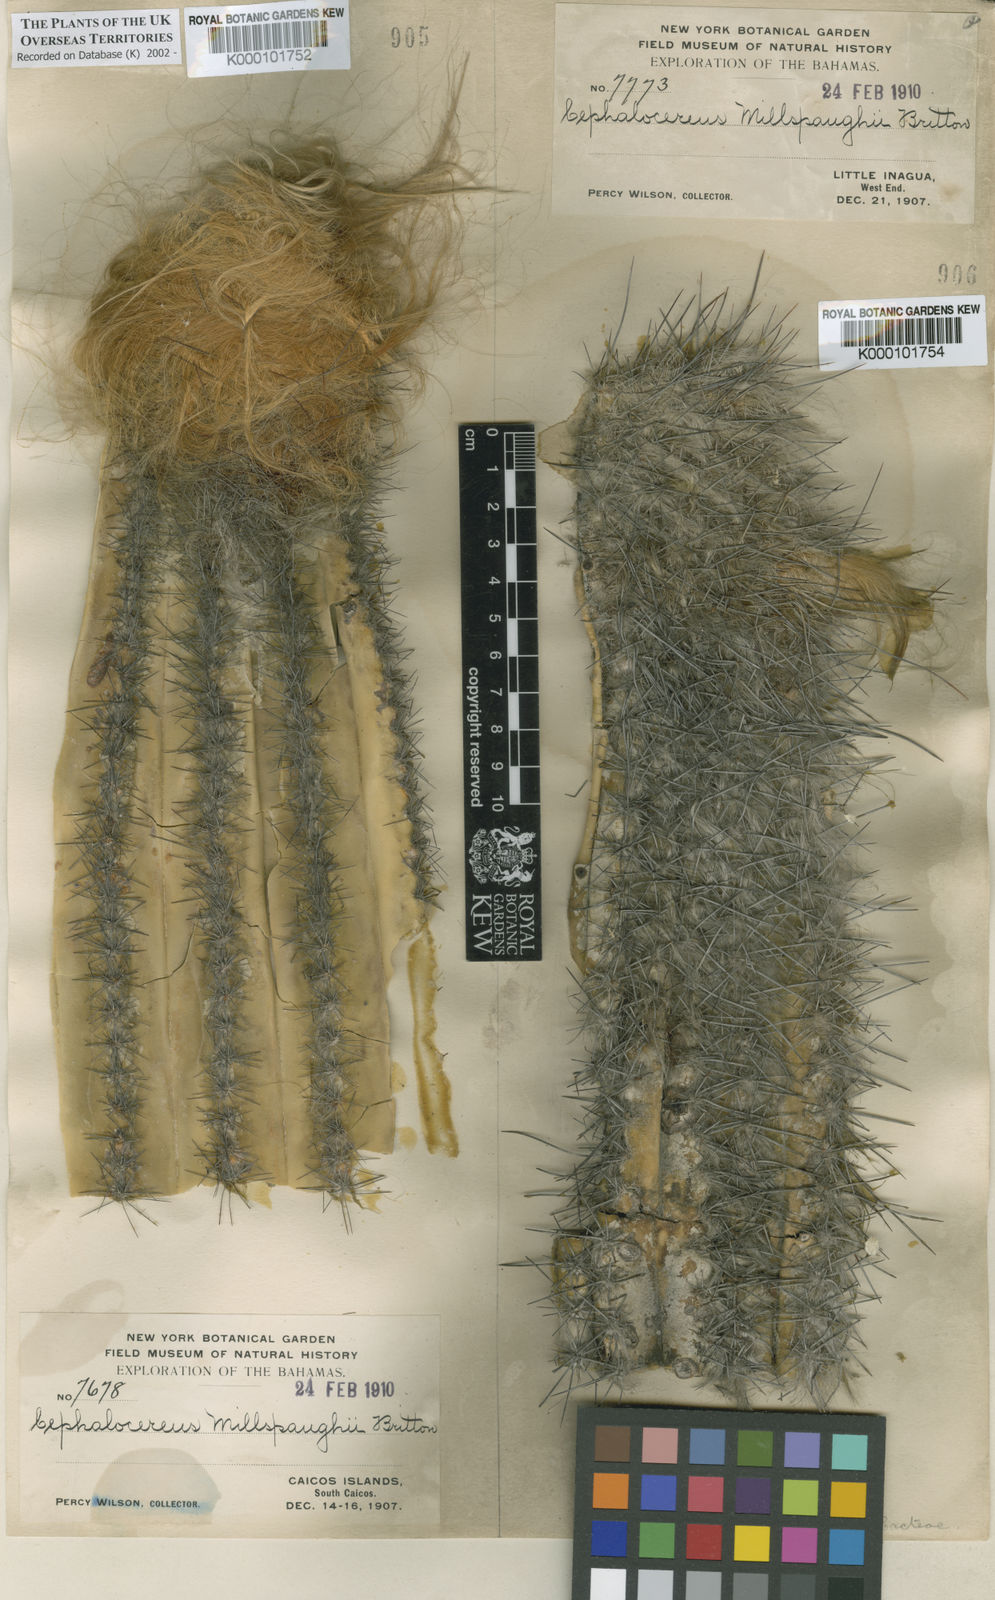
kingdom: Plantae
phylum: Tracheophyta
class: Magnoliopsida
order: Caryophyllales
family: Cactaceae
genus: Pilosocereus
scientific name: Pilosocereus polygonus
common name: Key tree cactus
